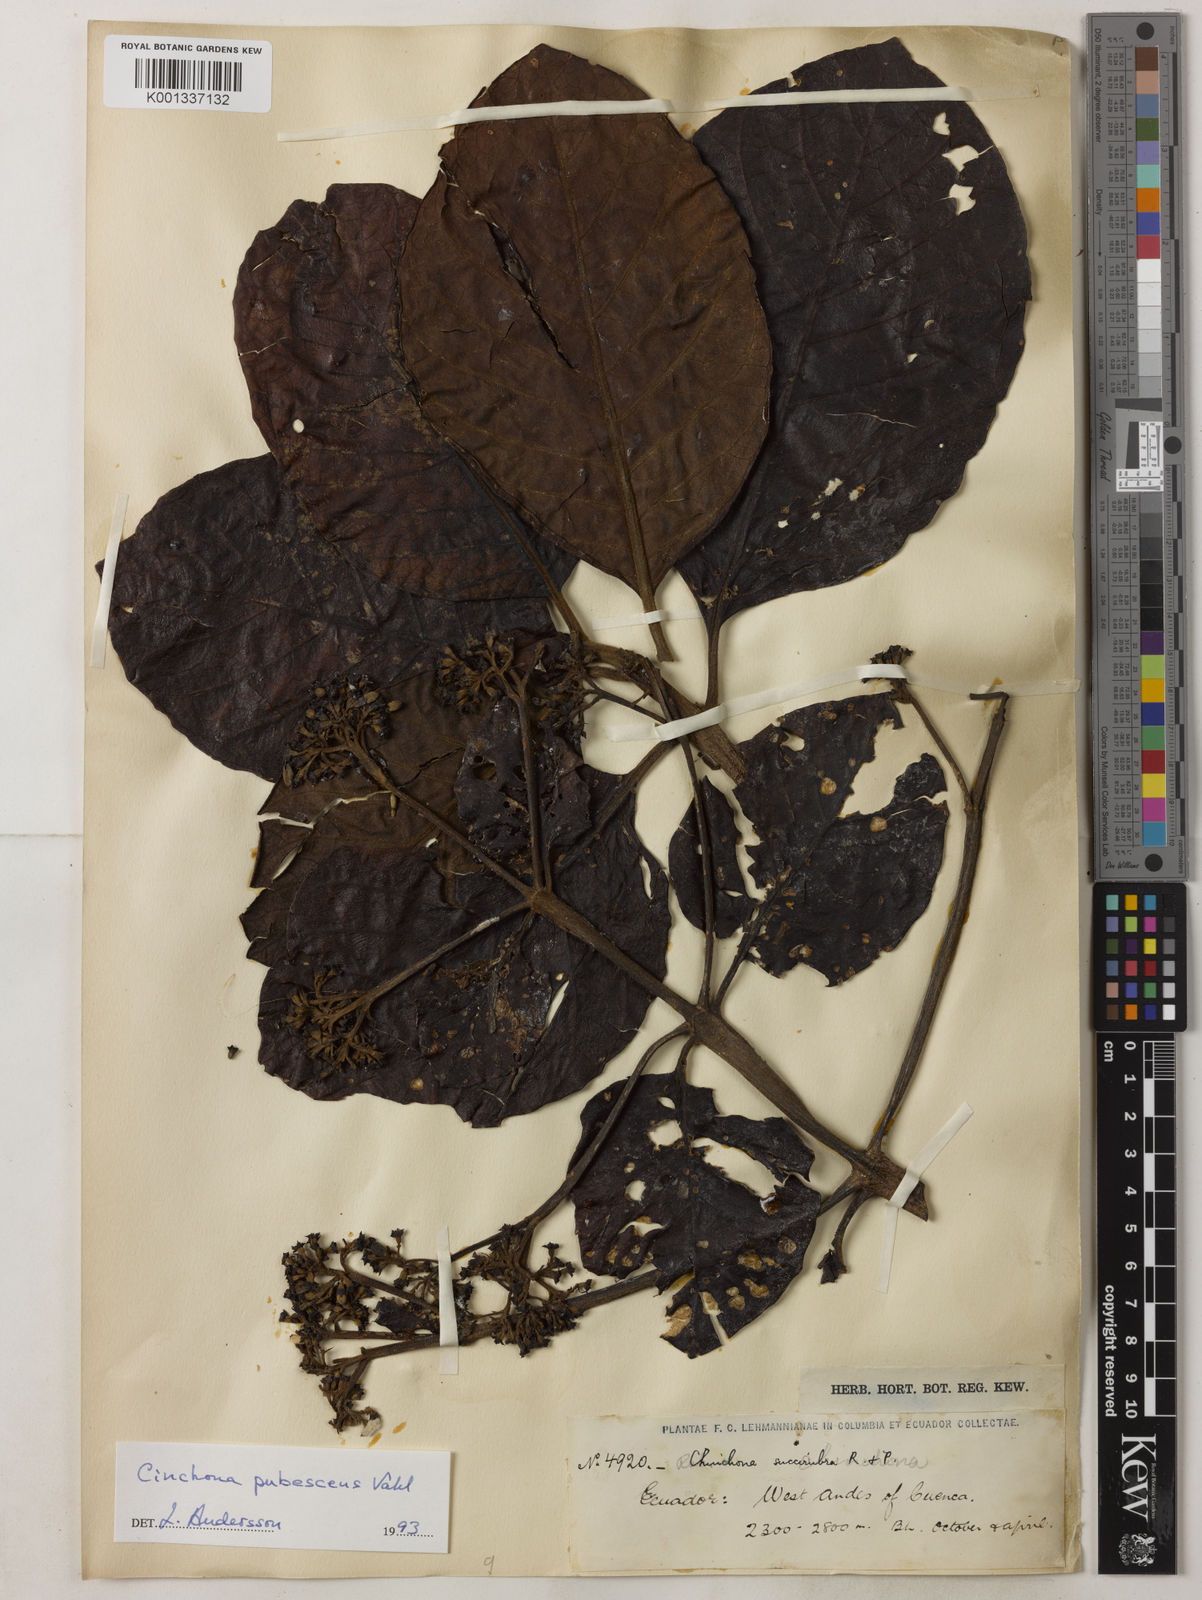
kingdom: Plantae
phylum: Tracheophyta
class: Magnoliopsida
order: Gentianales
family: Rubiaceae
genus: Cinchona
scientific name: Cinchona pubescens
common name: Quinine
